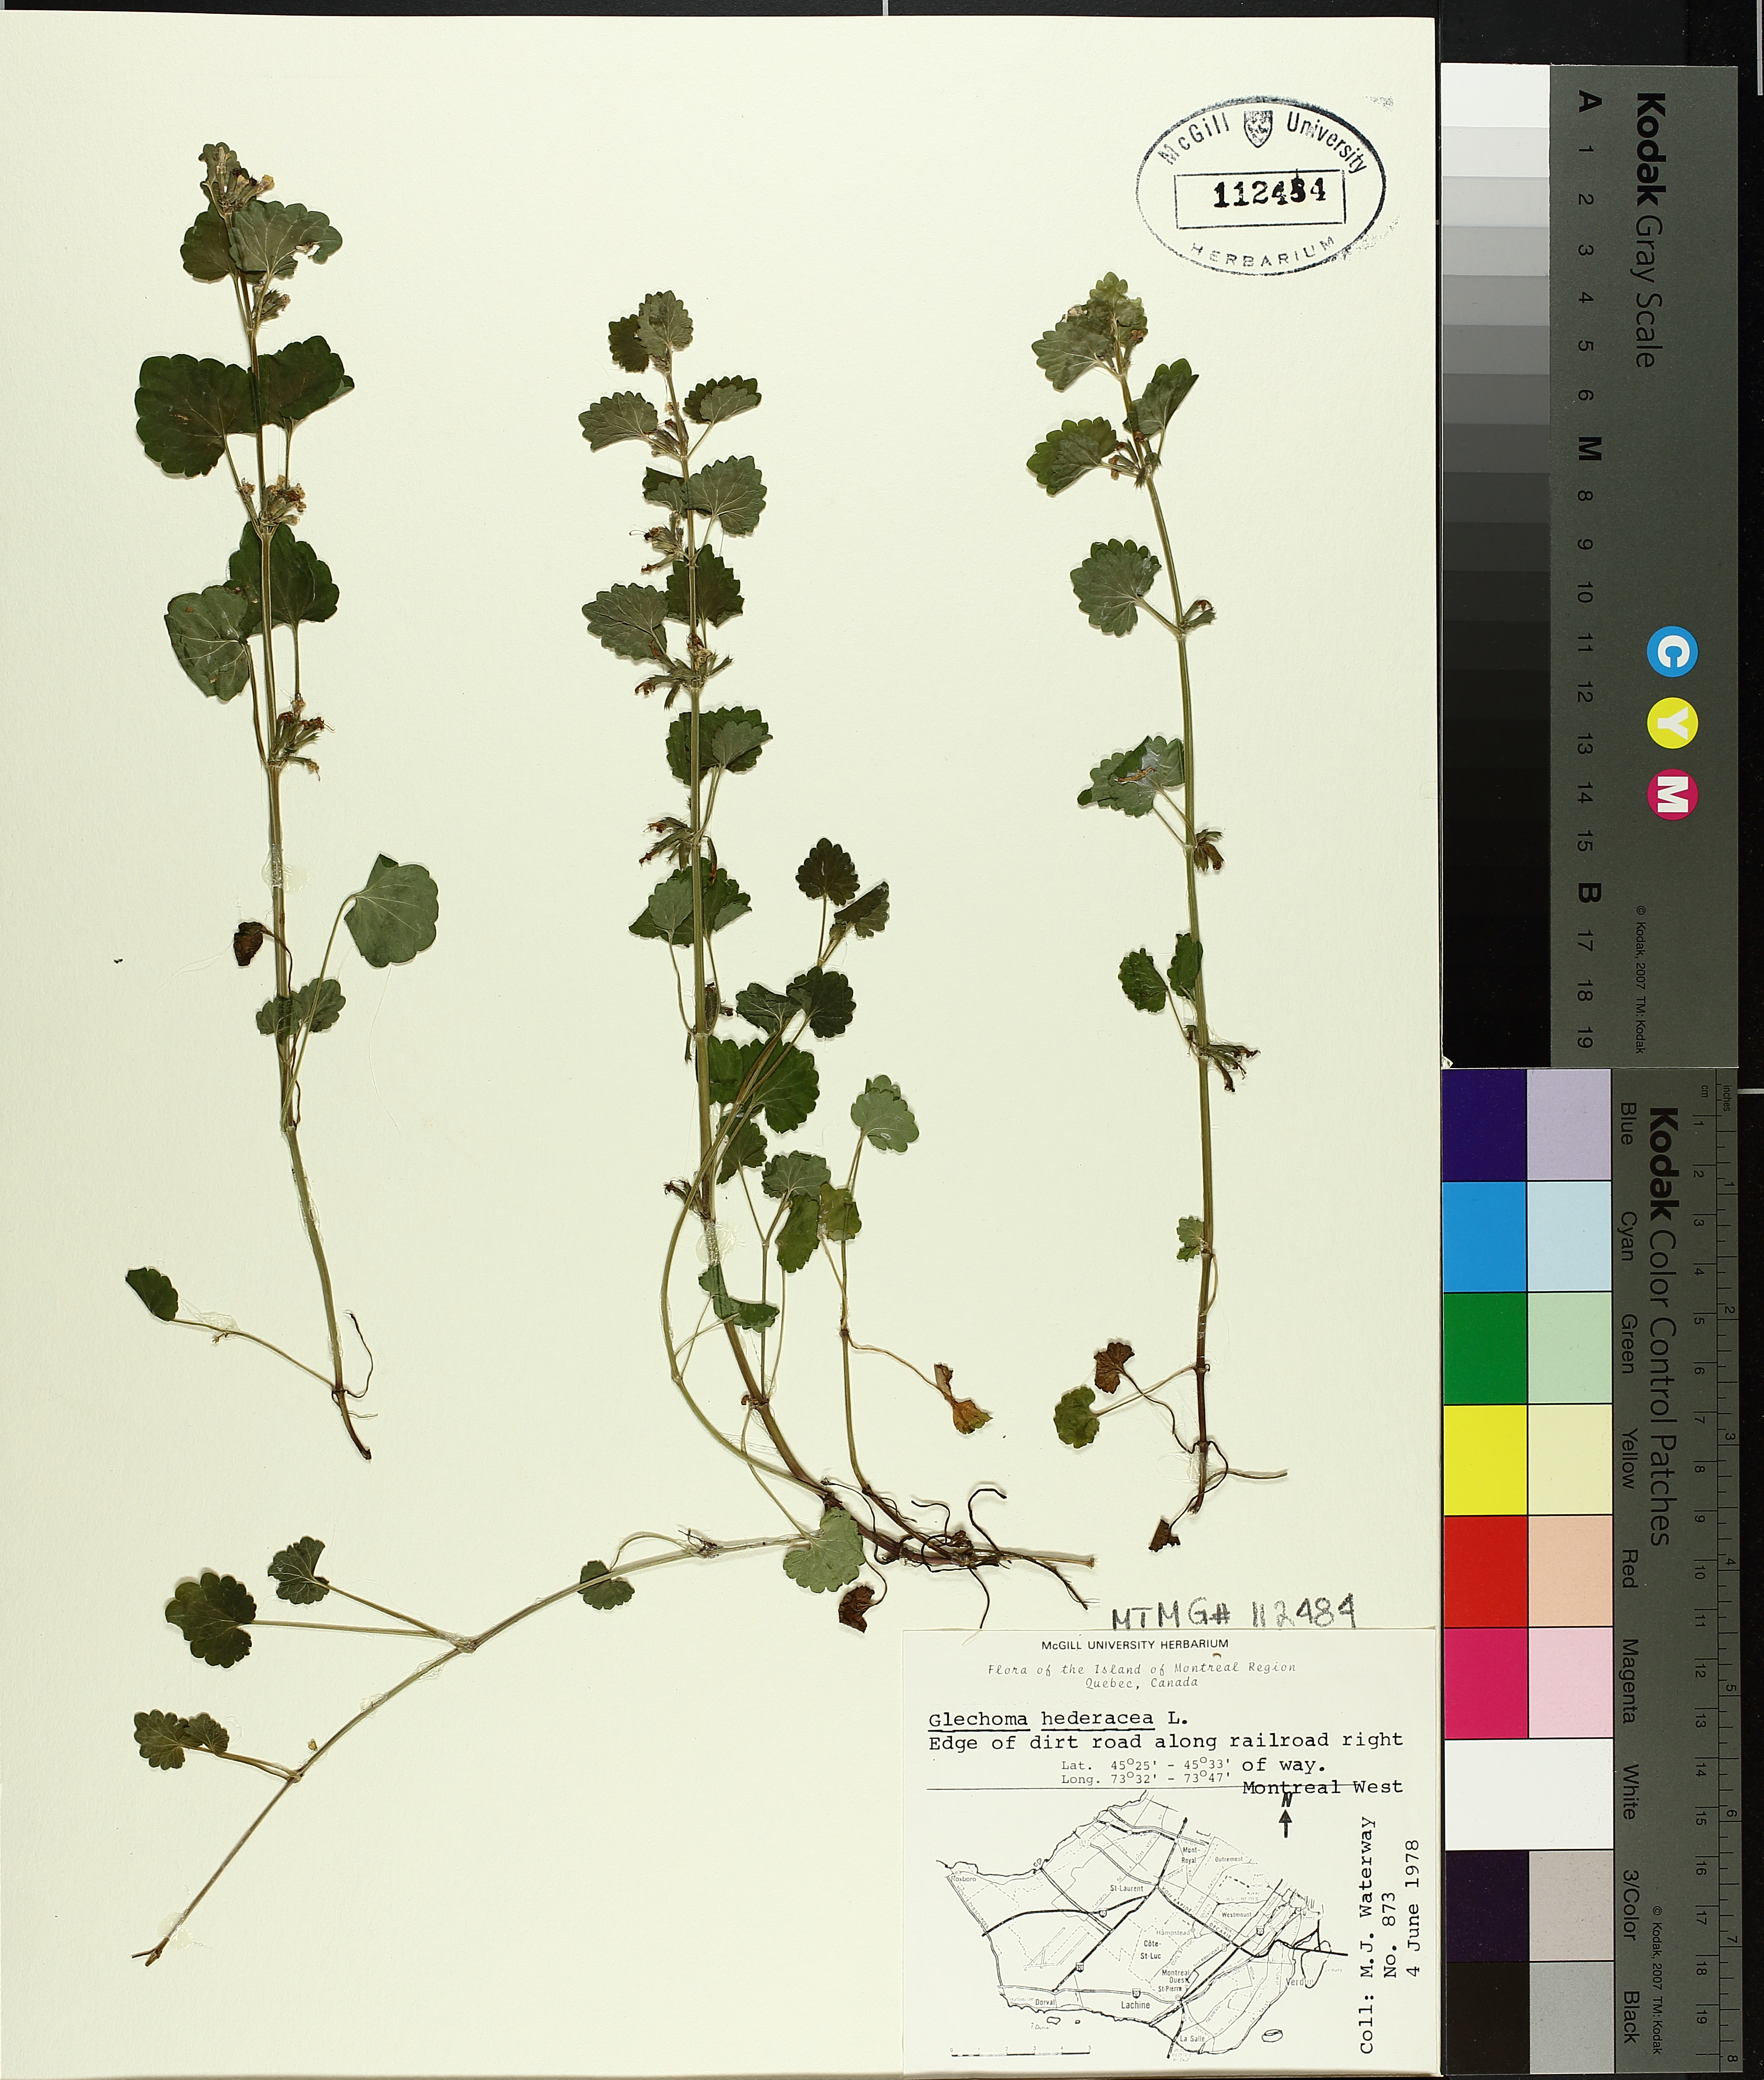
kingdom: Plantae
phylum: Tracheophyta
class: Magnoliopsida
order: Lamiales
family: Lamiaceae
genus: Glechoma
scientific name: Glechoma hederacea
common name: Ground ivy
